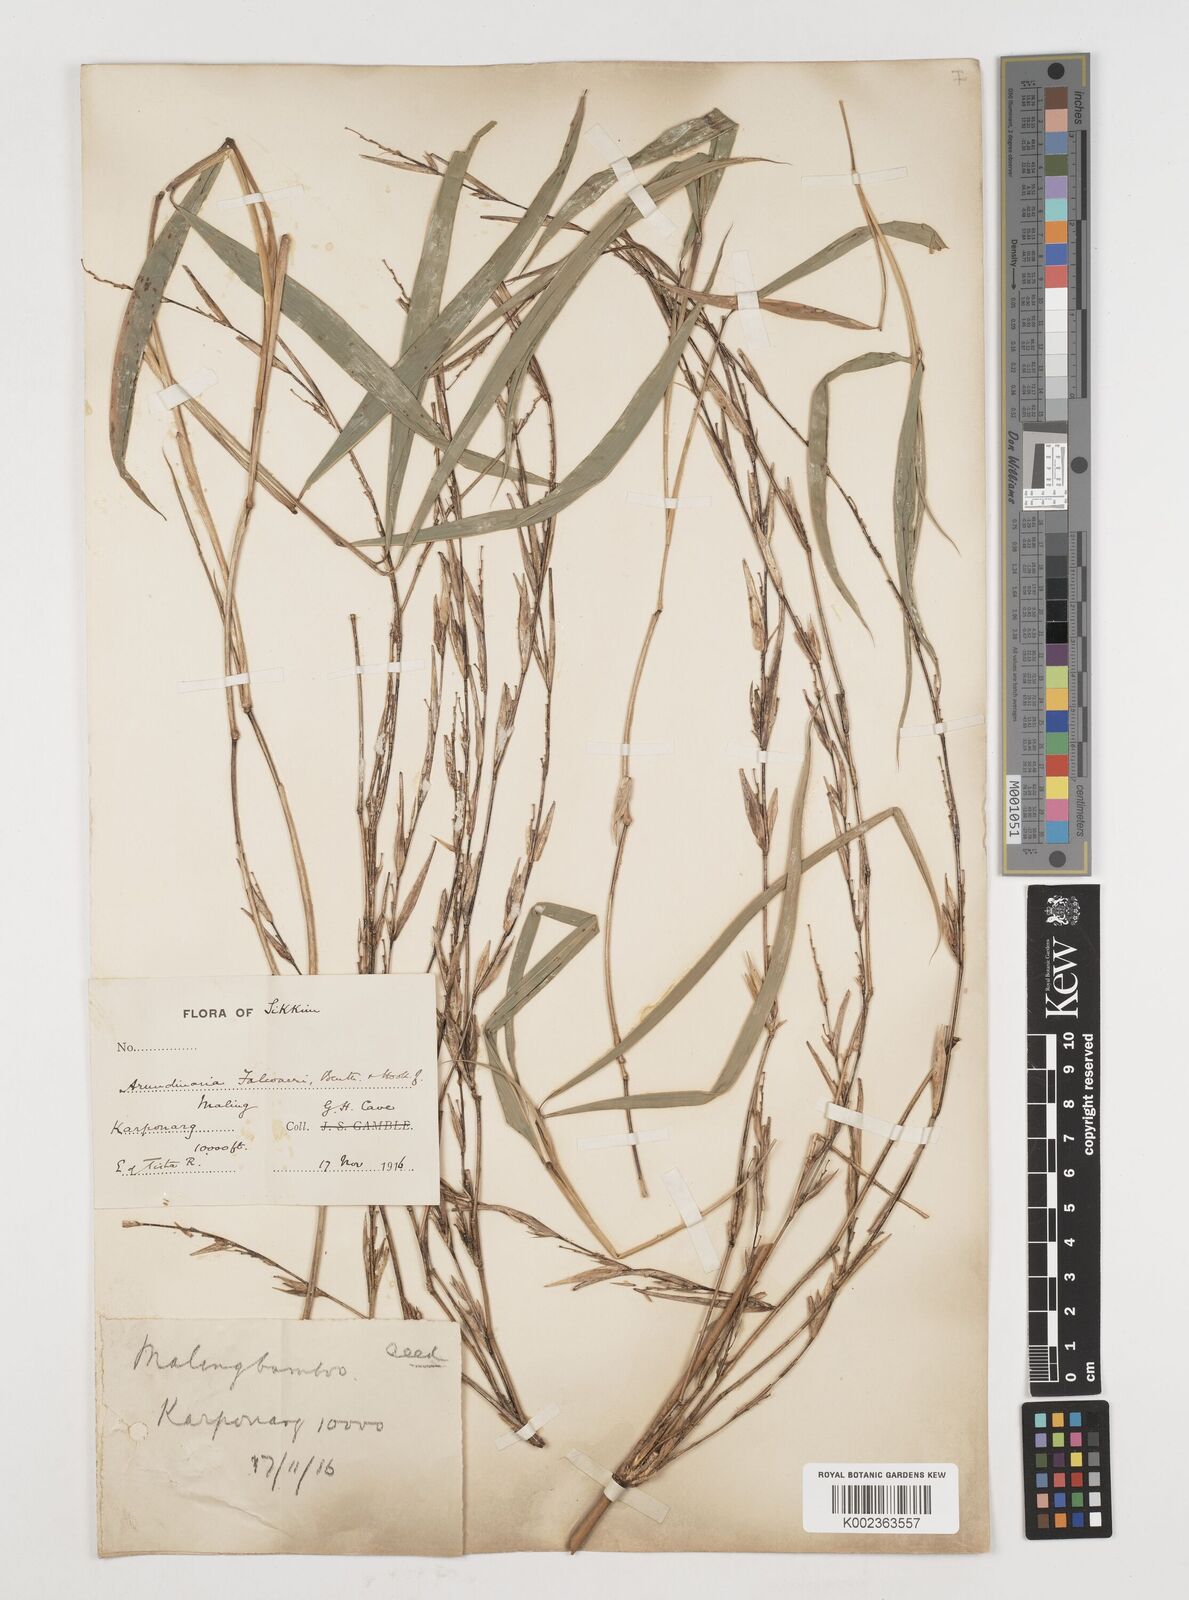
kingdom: Plantae
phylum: Tracheophyta
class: Liliopsida
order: Poales
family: Poaceae
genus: Himalayacalamus
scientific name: Himalayacalamus falconeri
